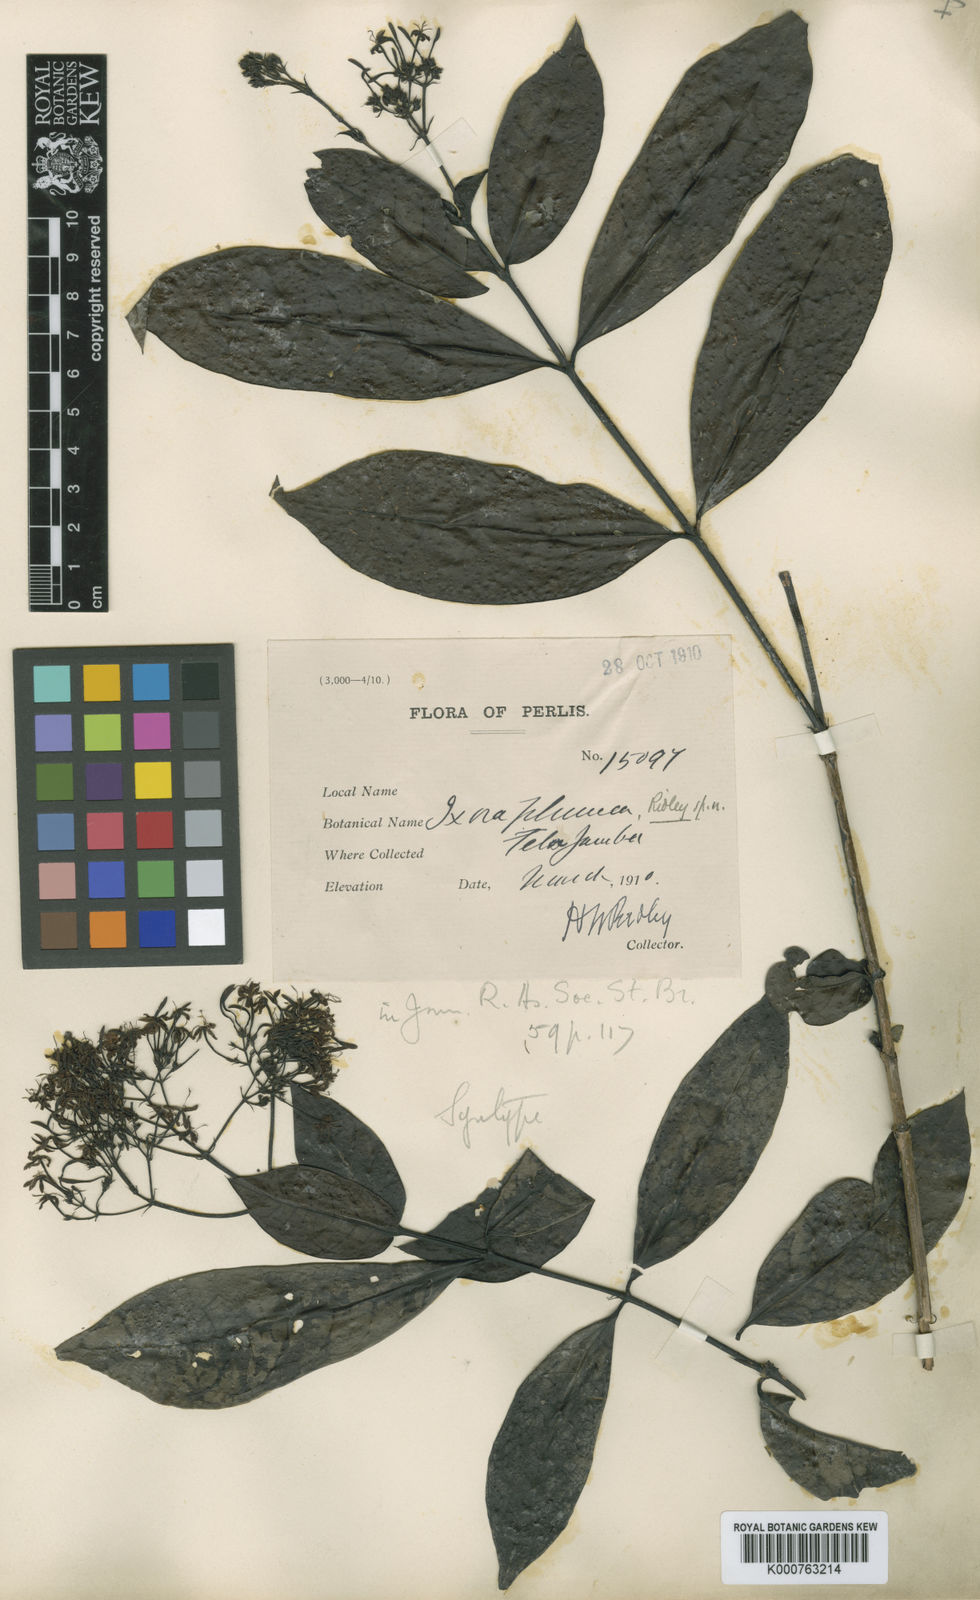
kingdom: Plantae
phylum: Tracheophyta
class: Magnoliopsida
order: Gentianales
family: Rubiaceae
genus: Ixora
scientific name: Ixora
